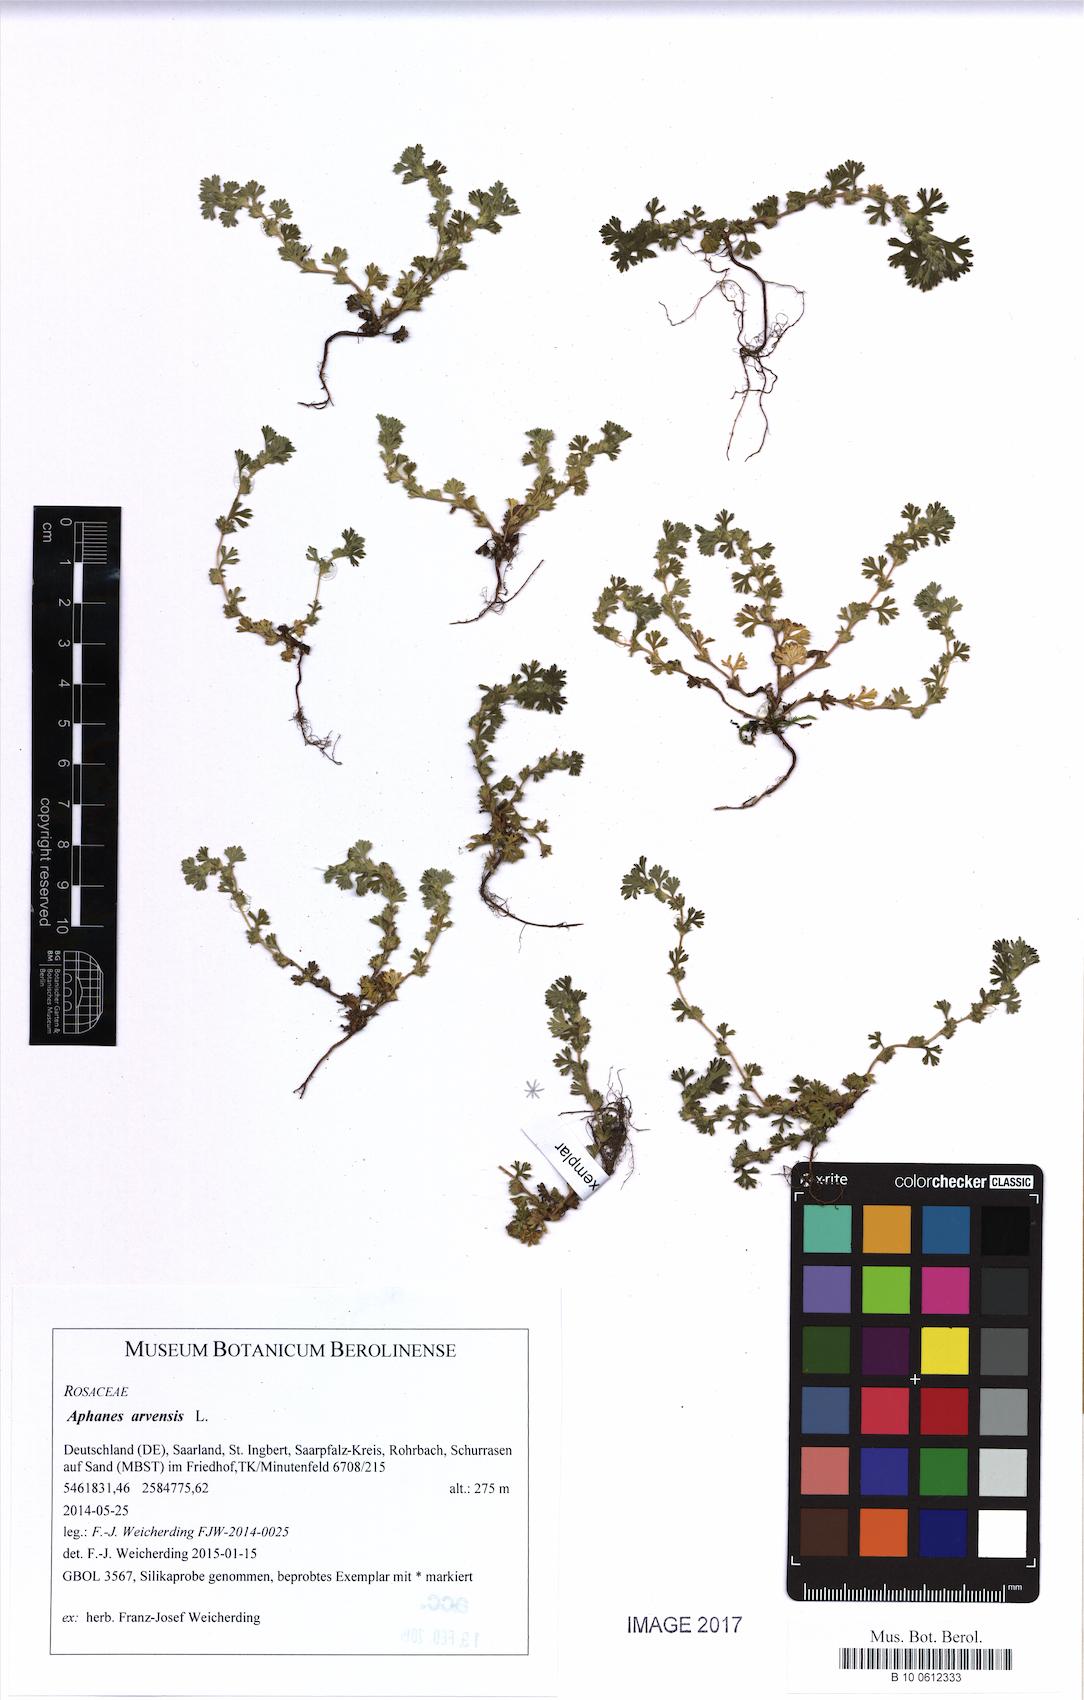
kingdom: Plantae
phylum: Tracheophyta
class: Magnoliopsida
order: Rosales
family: Rosaceae
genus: Aphanes
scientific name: Aphanes arvensis
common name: Parsley-piert
